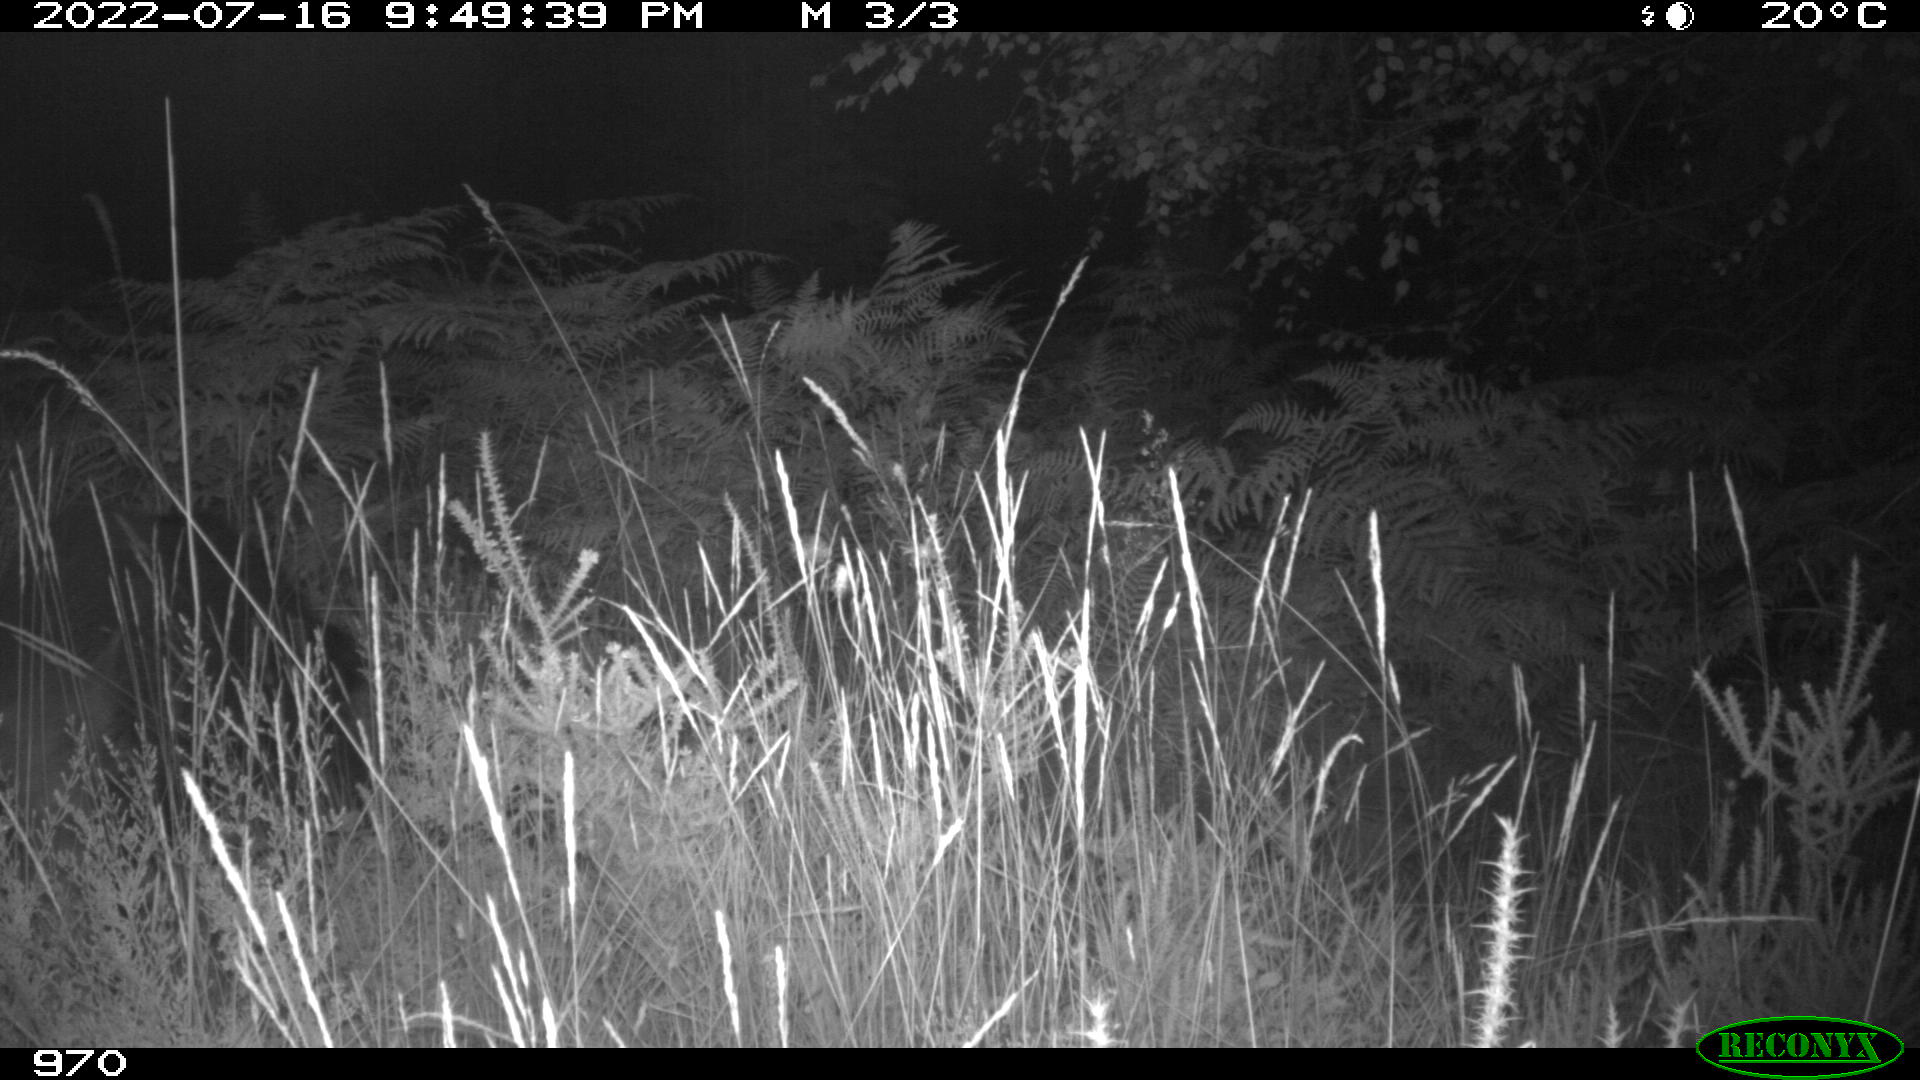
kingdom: Animalia
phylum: Chordata
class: Mammalia
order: Artiodactyla
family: Suidae
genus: Sus
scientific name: Sus scrofa
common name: Wild boar
